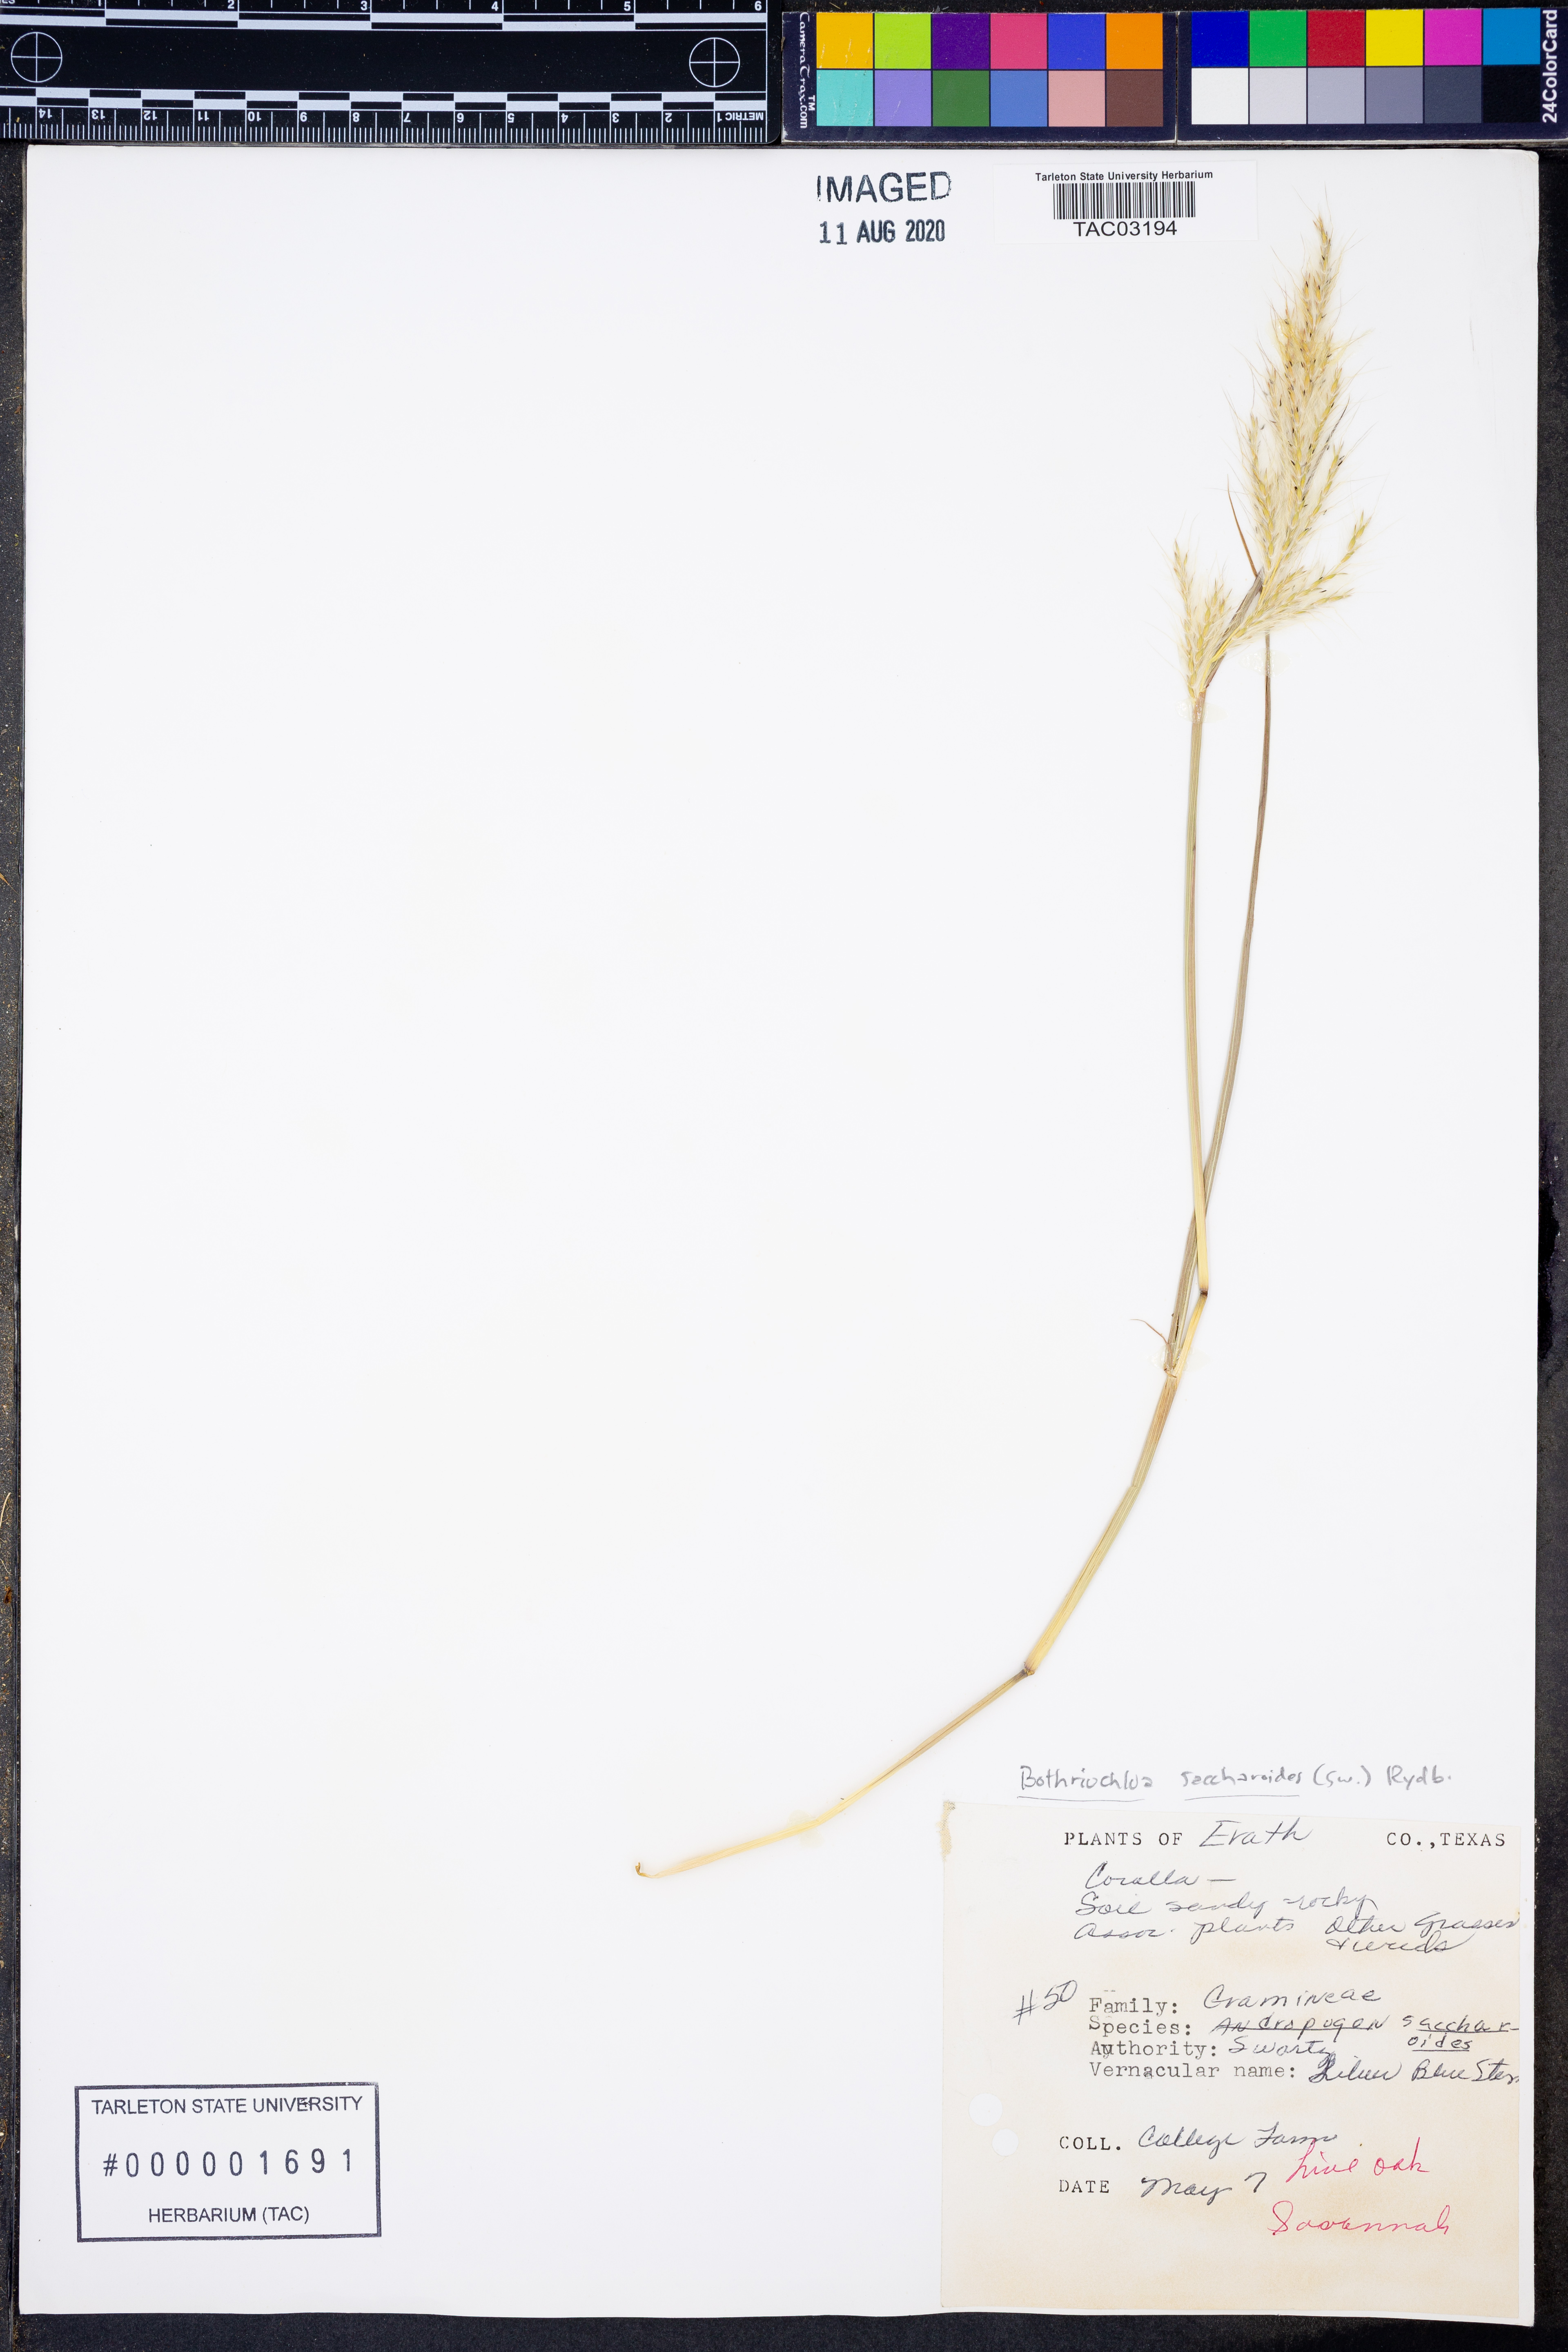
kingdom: Plantae
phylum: Tracheophyta
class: Liliopsida
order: Poales
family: Poaceae
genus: Bothriochloa
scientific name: Bothriochloa saccharoides
